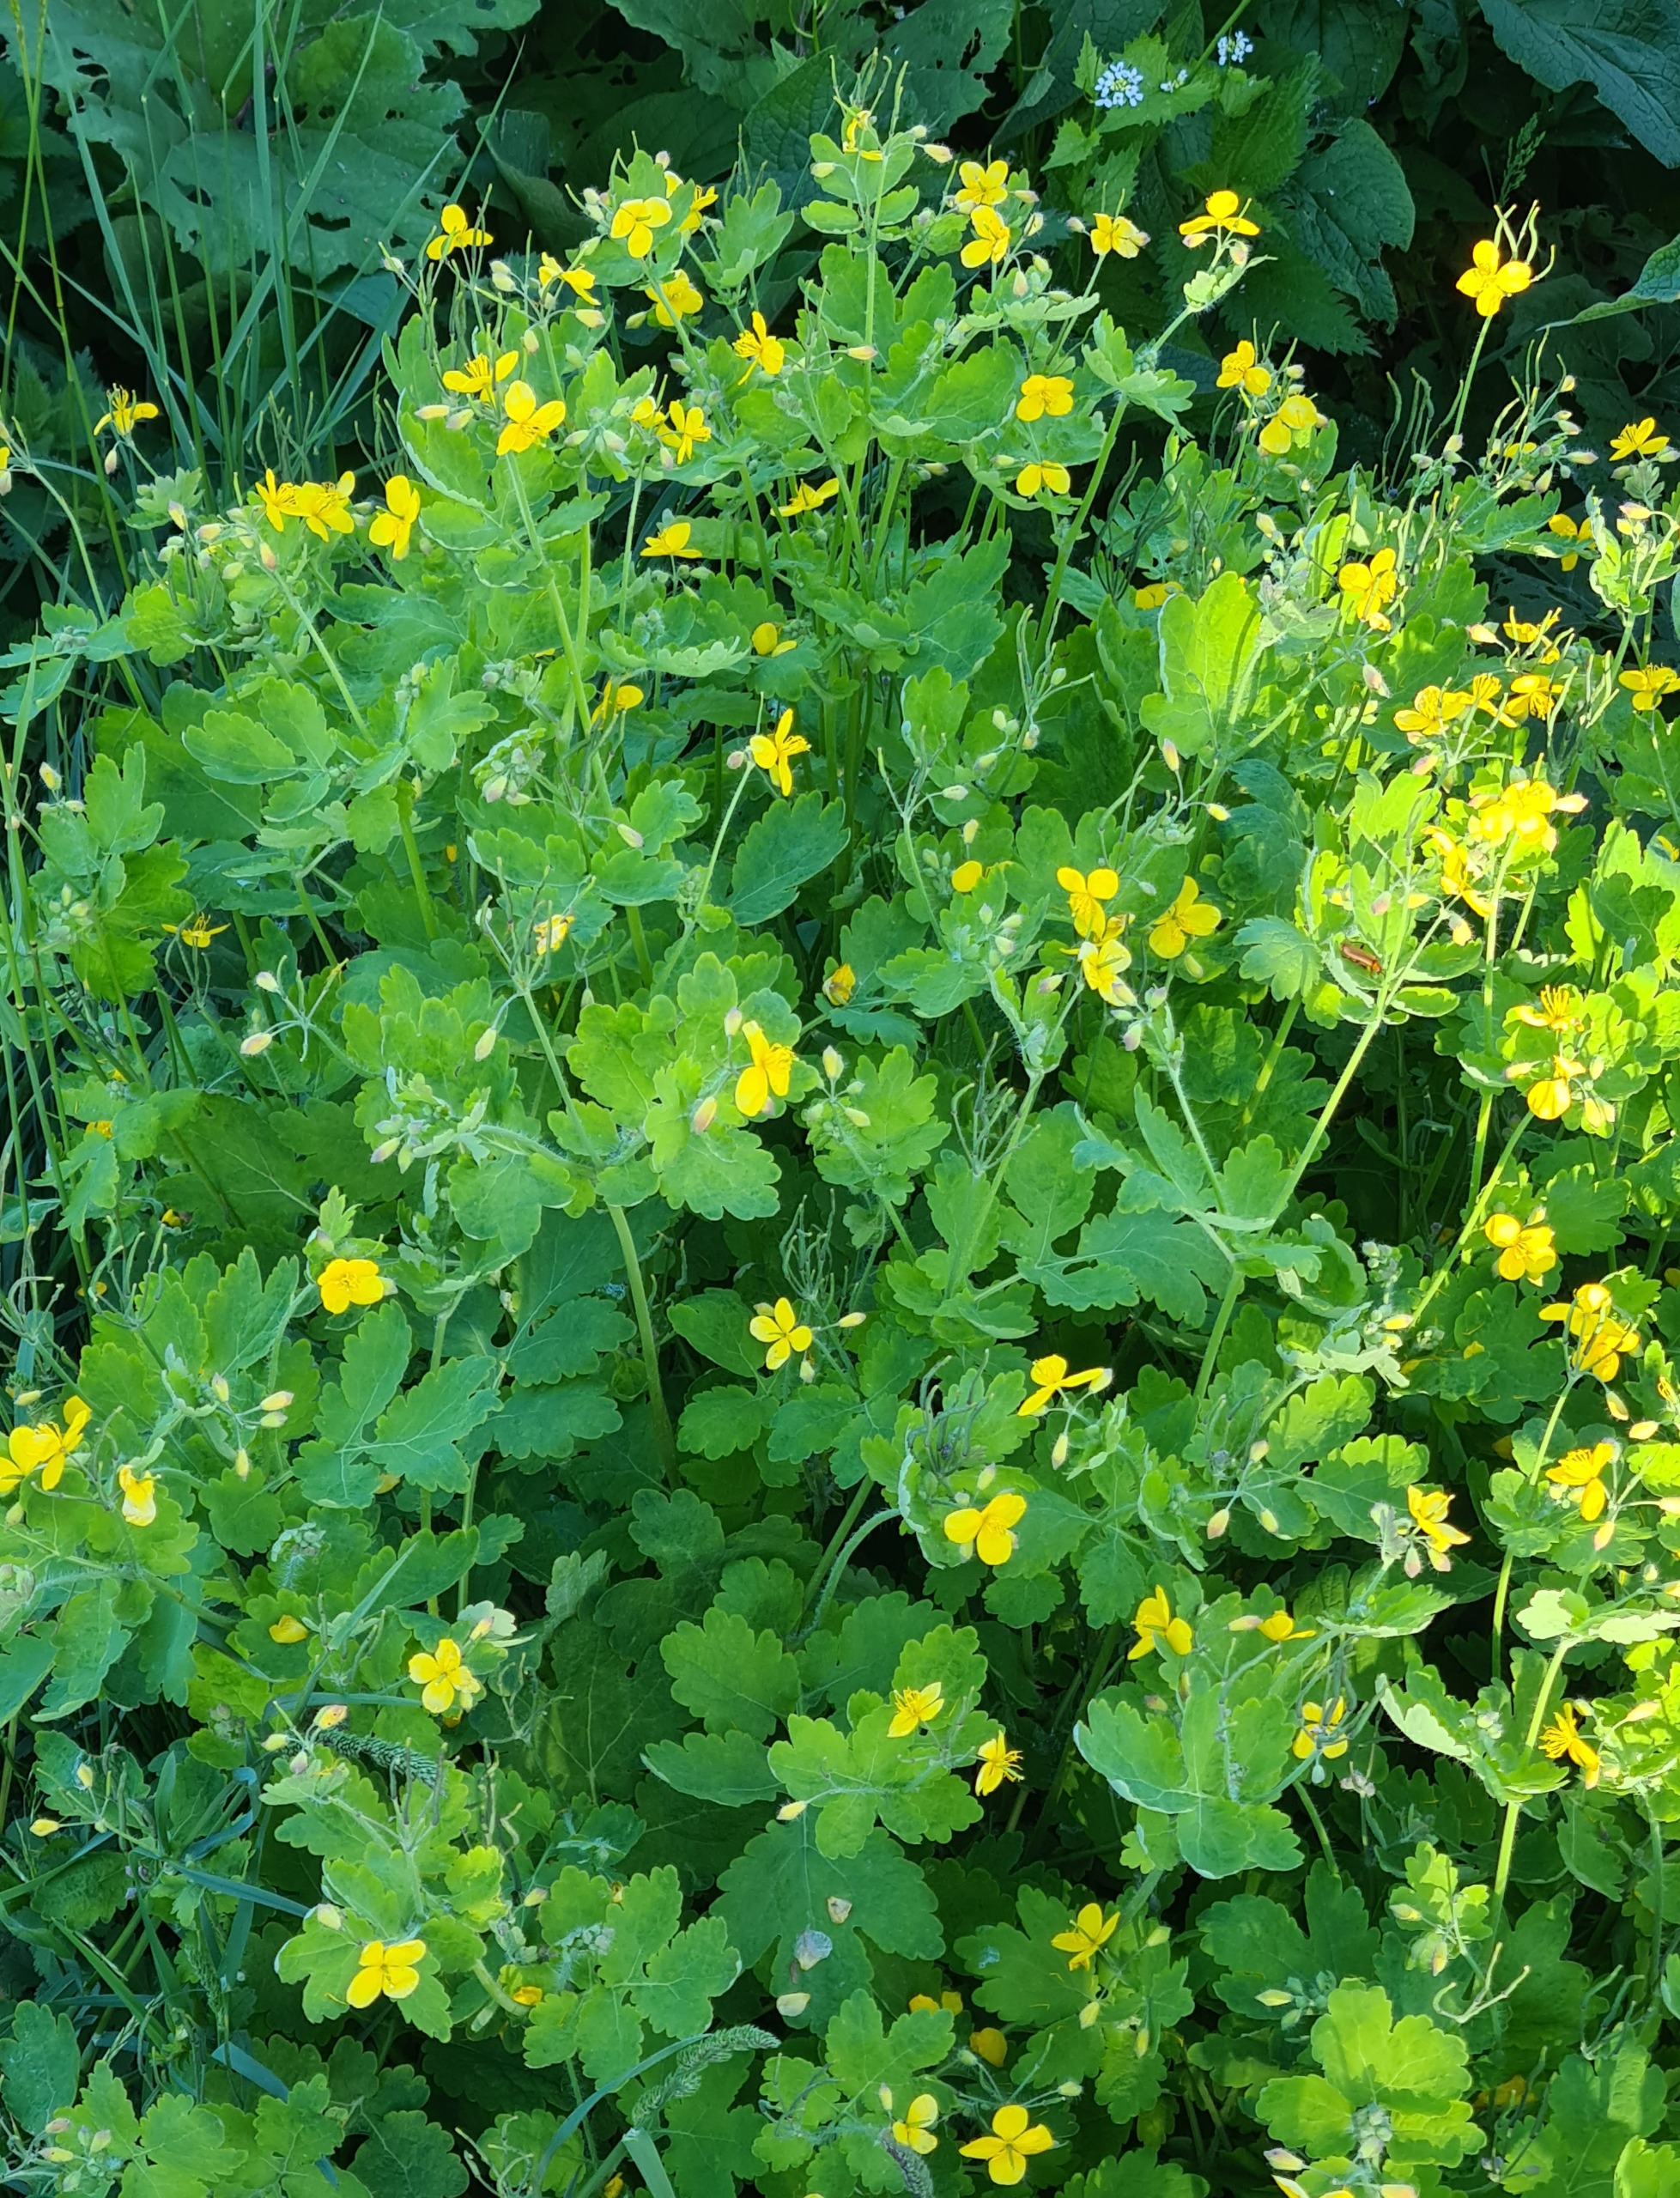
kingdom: Plantae
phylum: Tracheophyta
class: Magnoliopsida
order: Ranunculales
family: Papaveraceae
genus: Chelidonium
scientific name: Chelidonium majus
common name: Svaleurt
